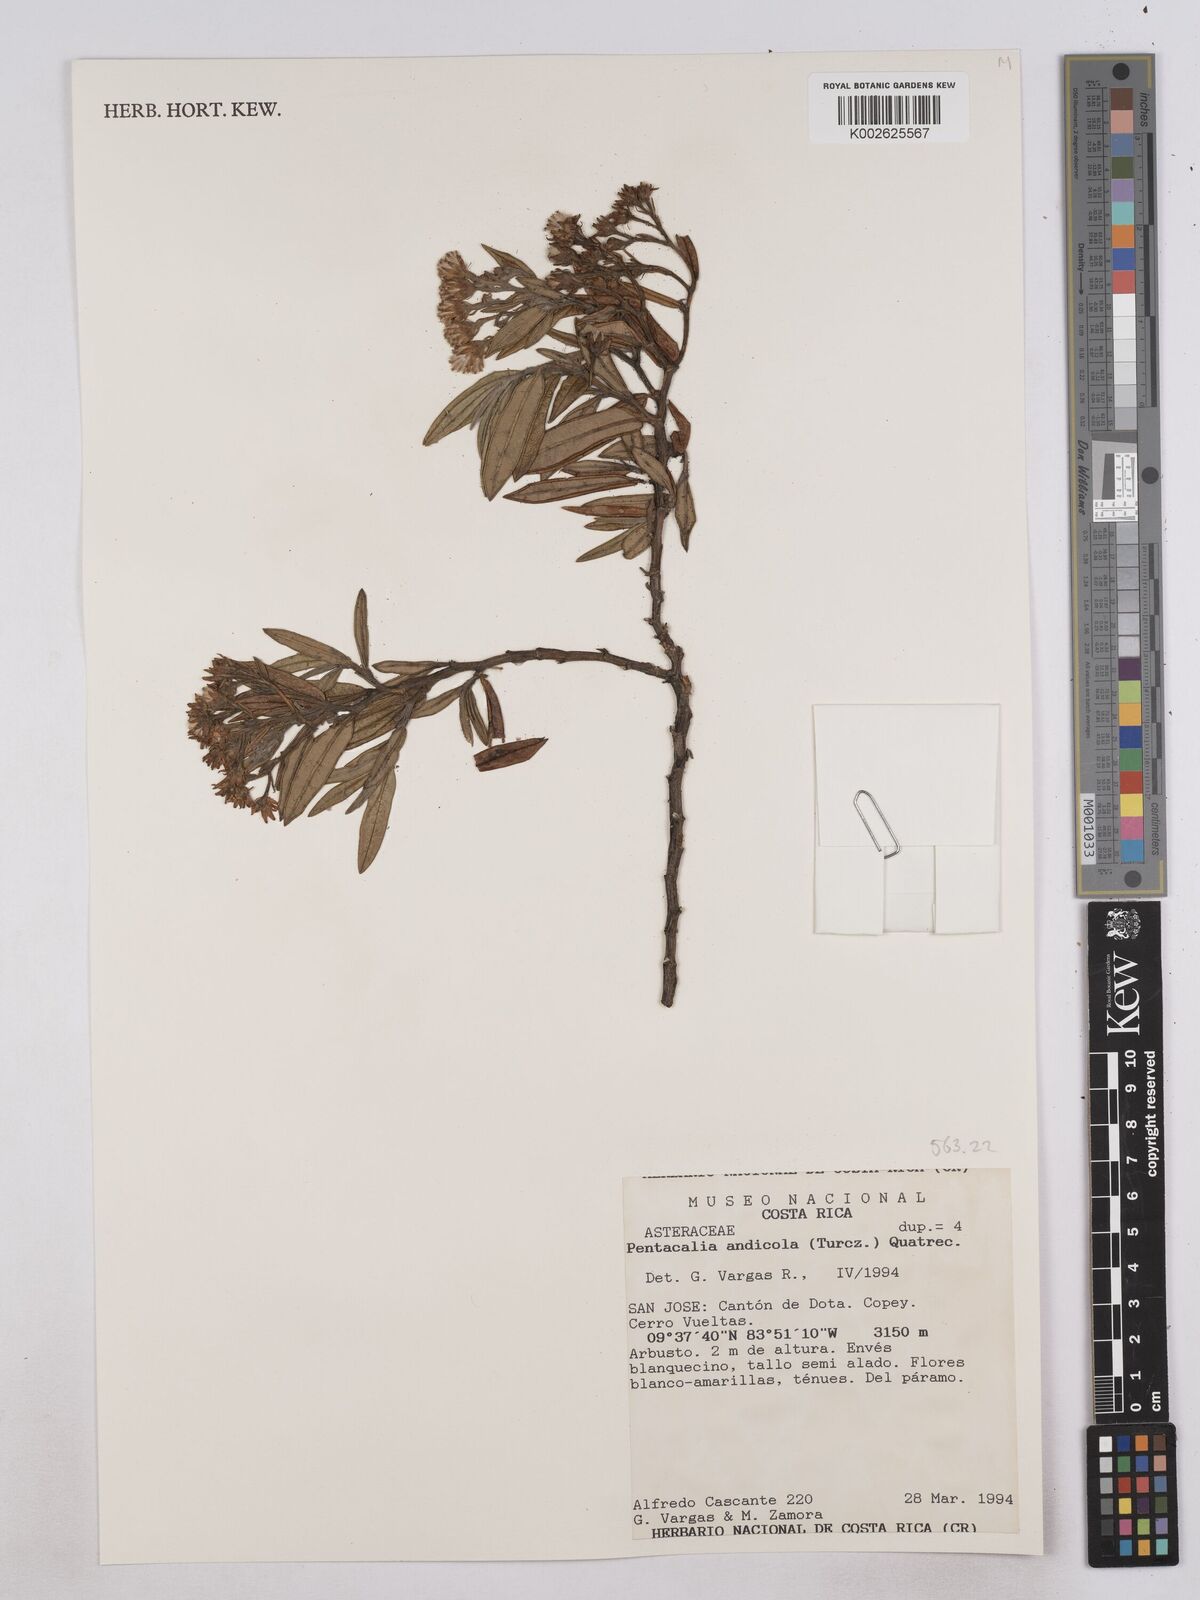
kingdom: Plantae
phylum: Tracheophyta
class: Magnoliopsida
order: Asterales
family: Asteraceae
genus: Monticalia
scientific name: Monticalia andicola
